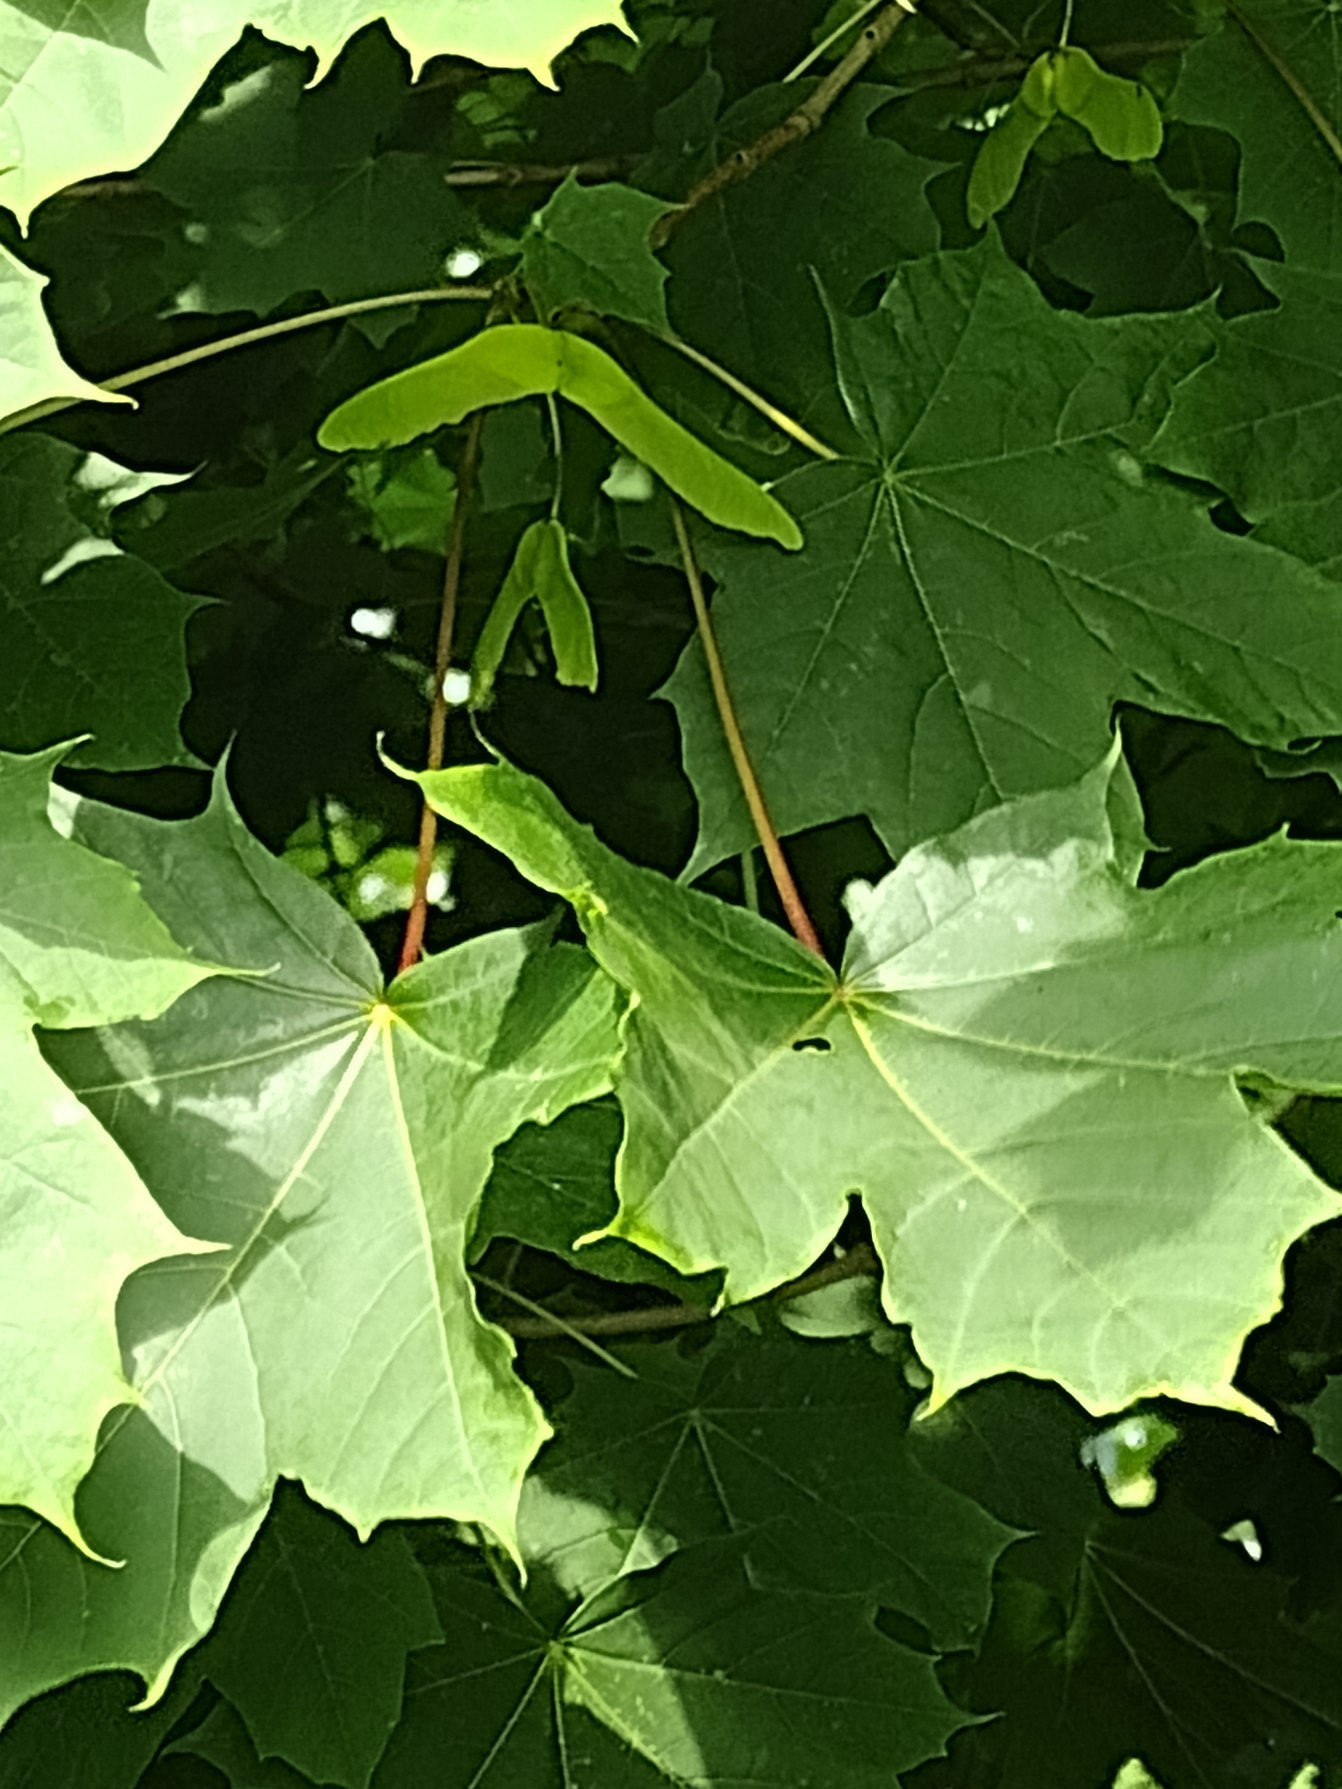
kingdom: Plantae
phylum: Tracheophyta
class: Magnoliopsida
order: Sapindales
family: Sapindaceae
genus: Acer
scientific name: Acer platanoides
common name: Spids-løn
